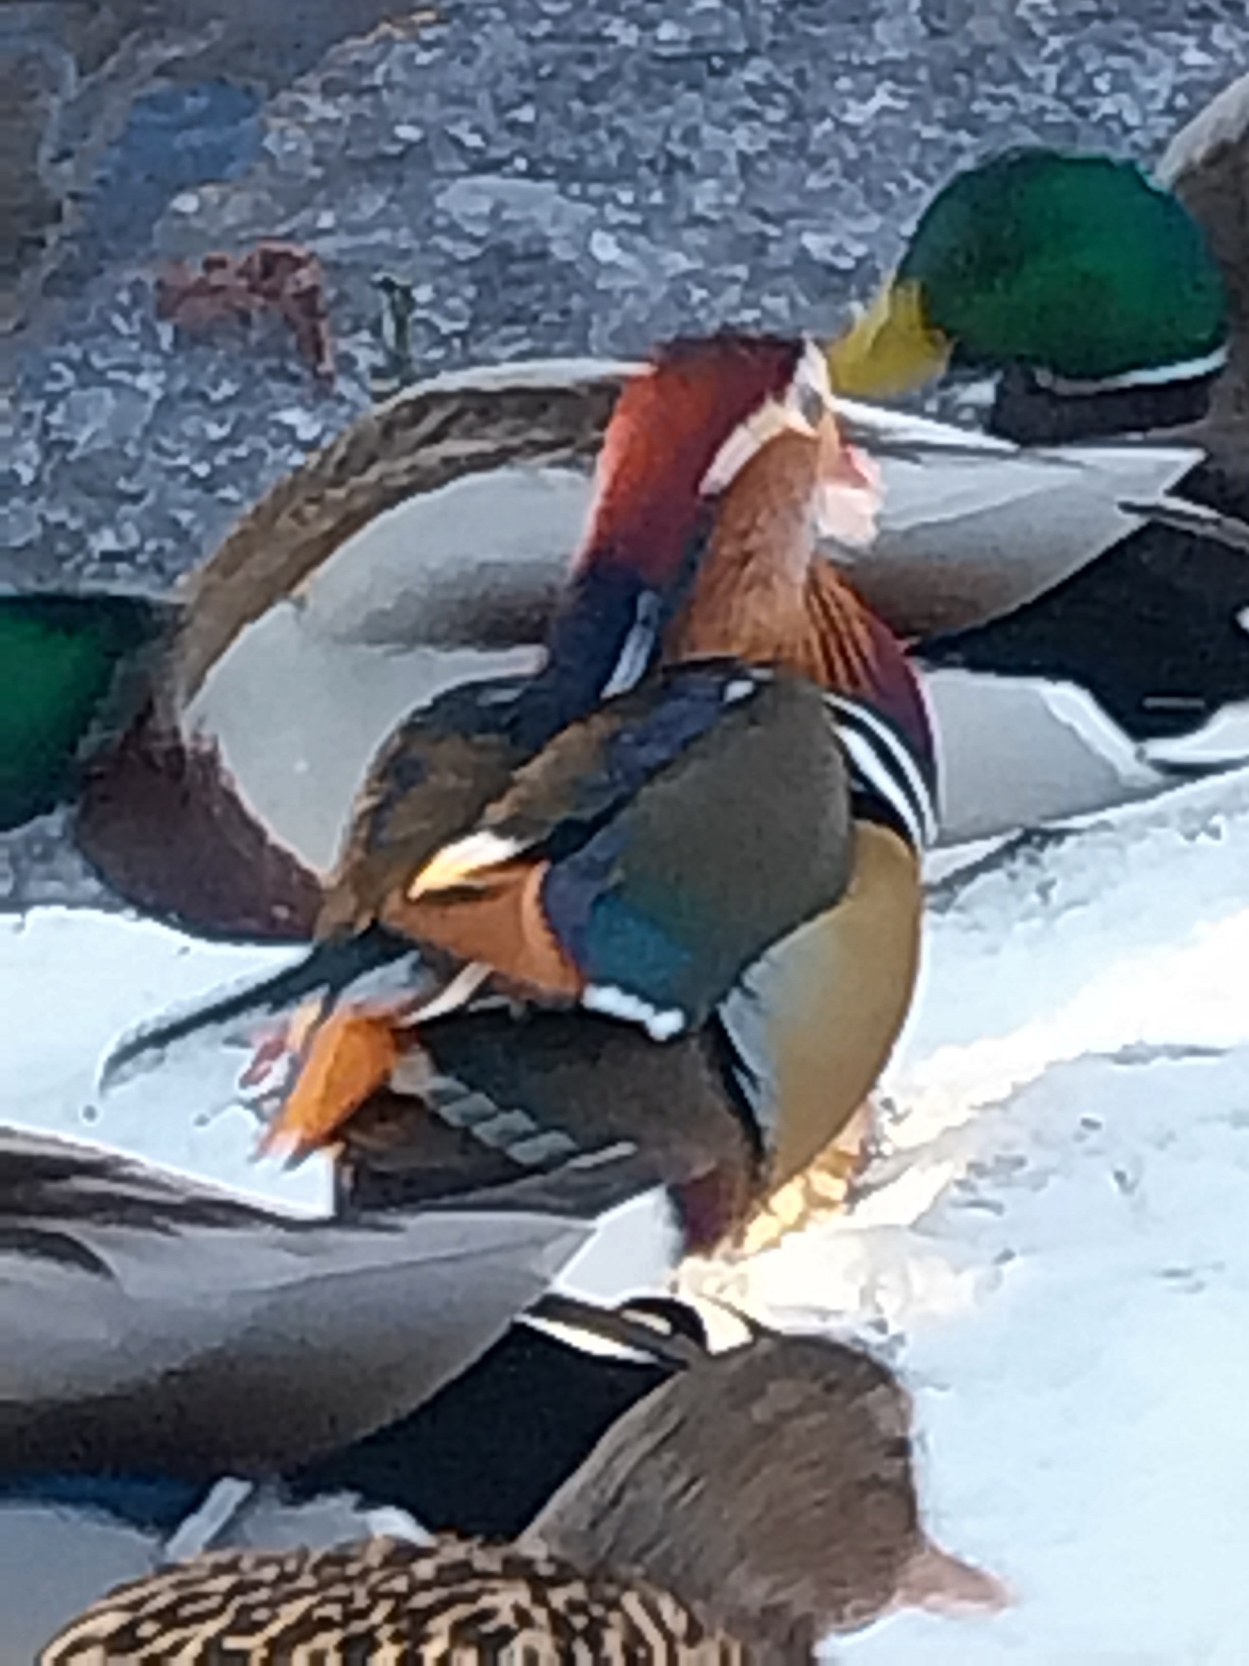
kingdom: Animalia
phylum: Chordata
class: Aves
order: Anseriformes
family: Anatidae
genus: Aix
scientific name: Aix galericulata
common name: Mandarinand
